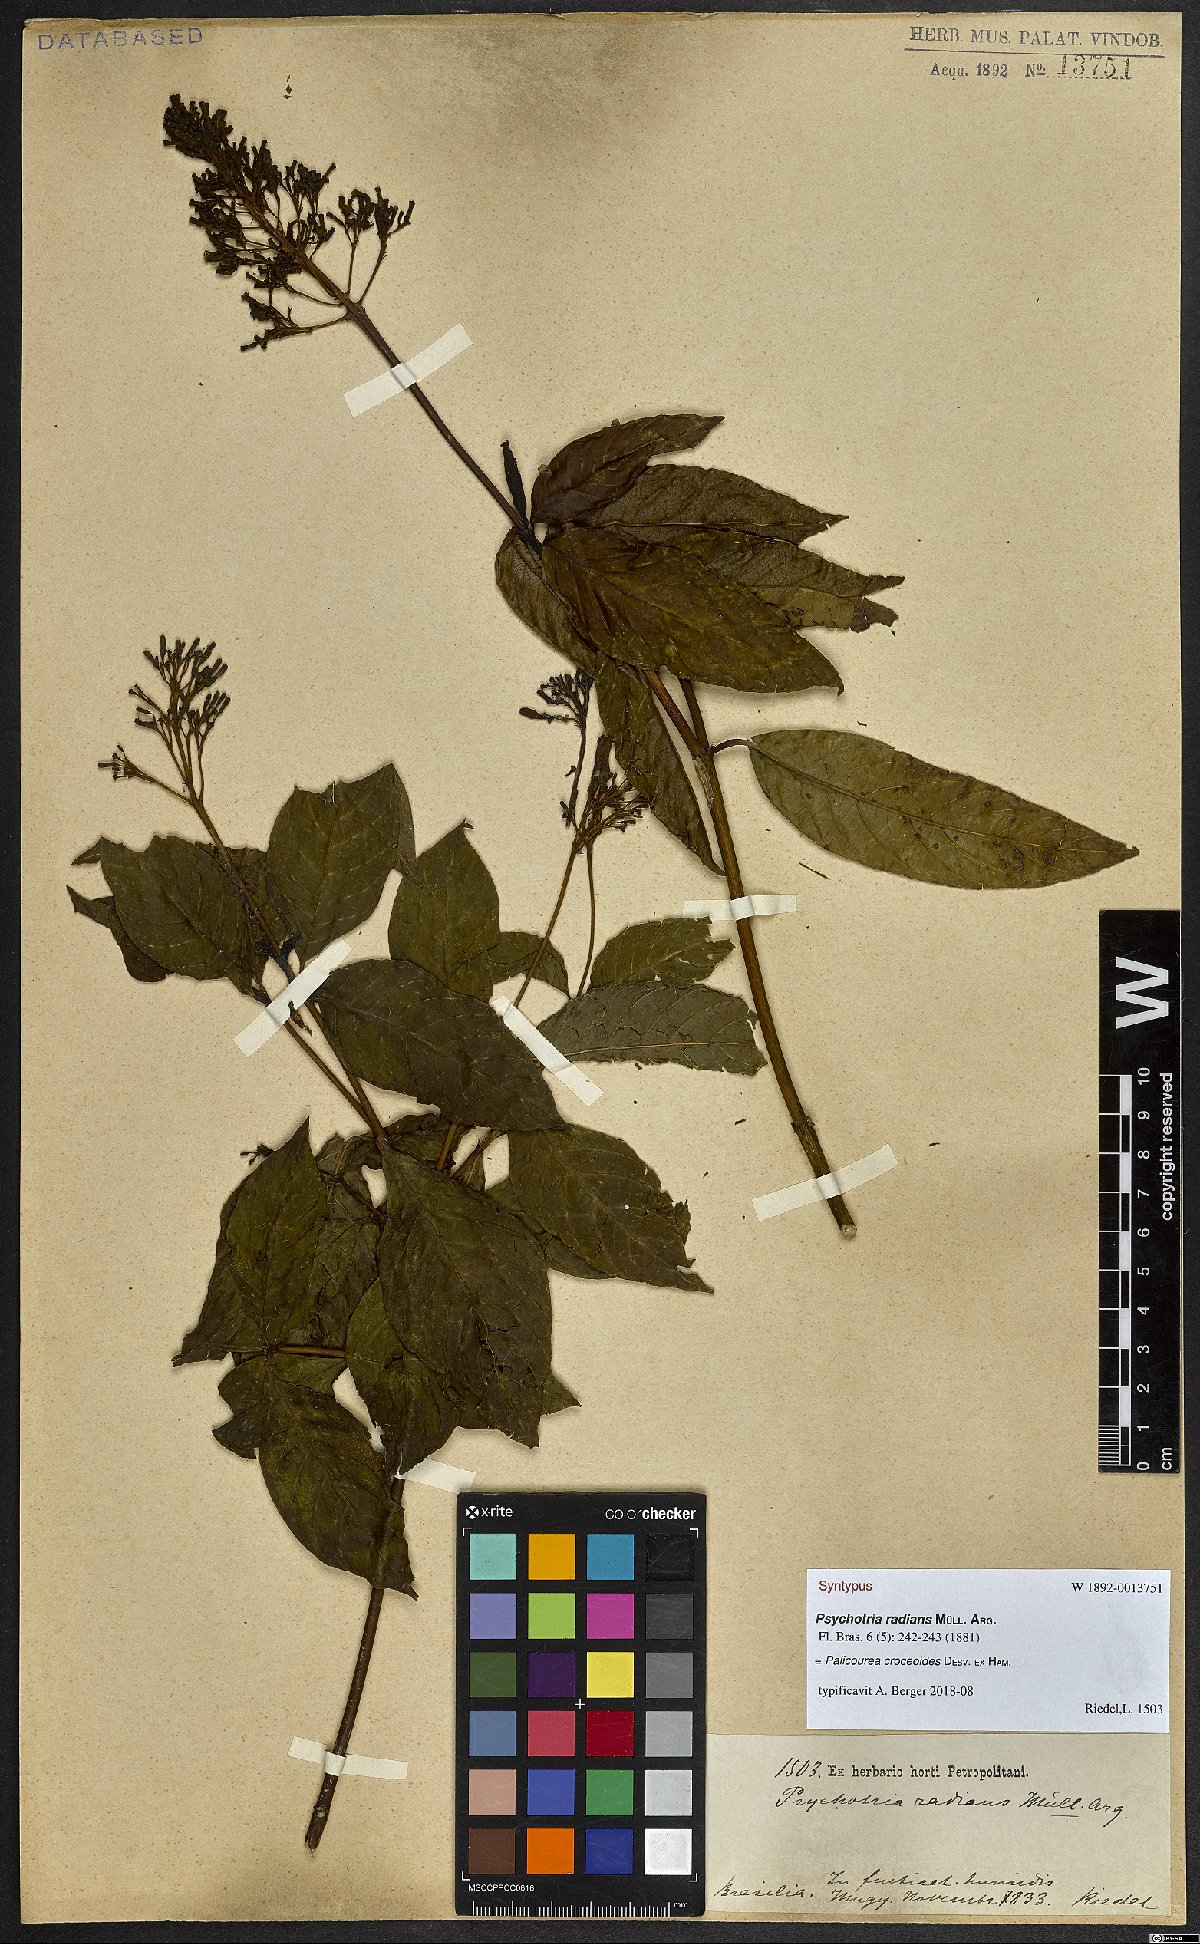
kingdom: Plantae
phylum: Tracheophyta
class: Magnoliopsida
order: Gentianales
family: Rubiaceae
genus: Palicourea
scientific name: Palicourea croceoides
